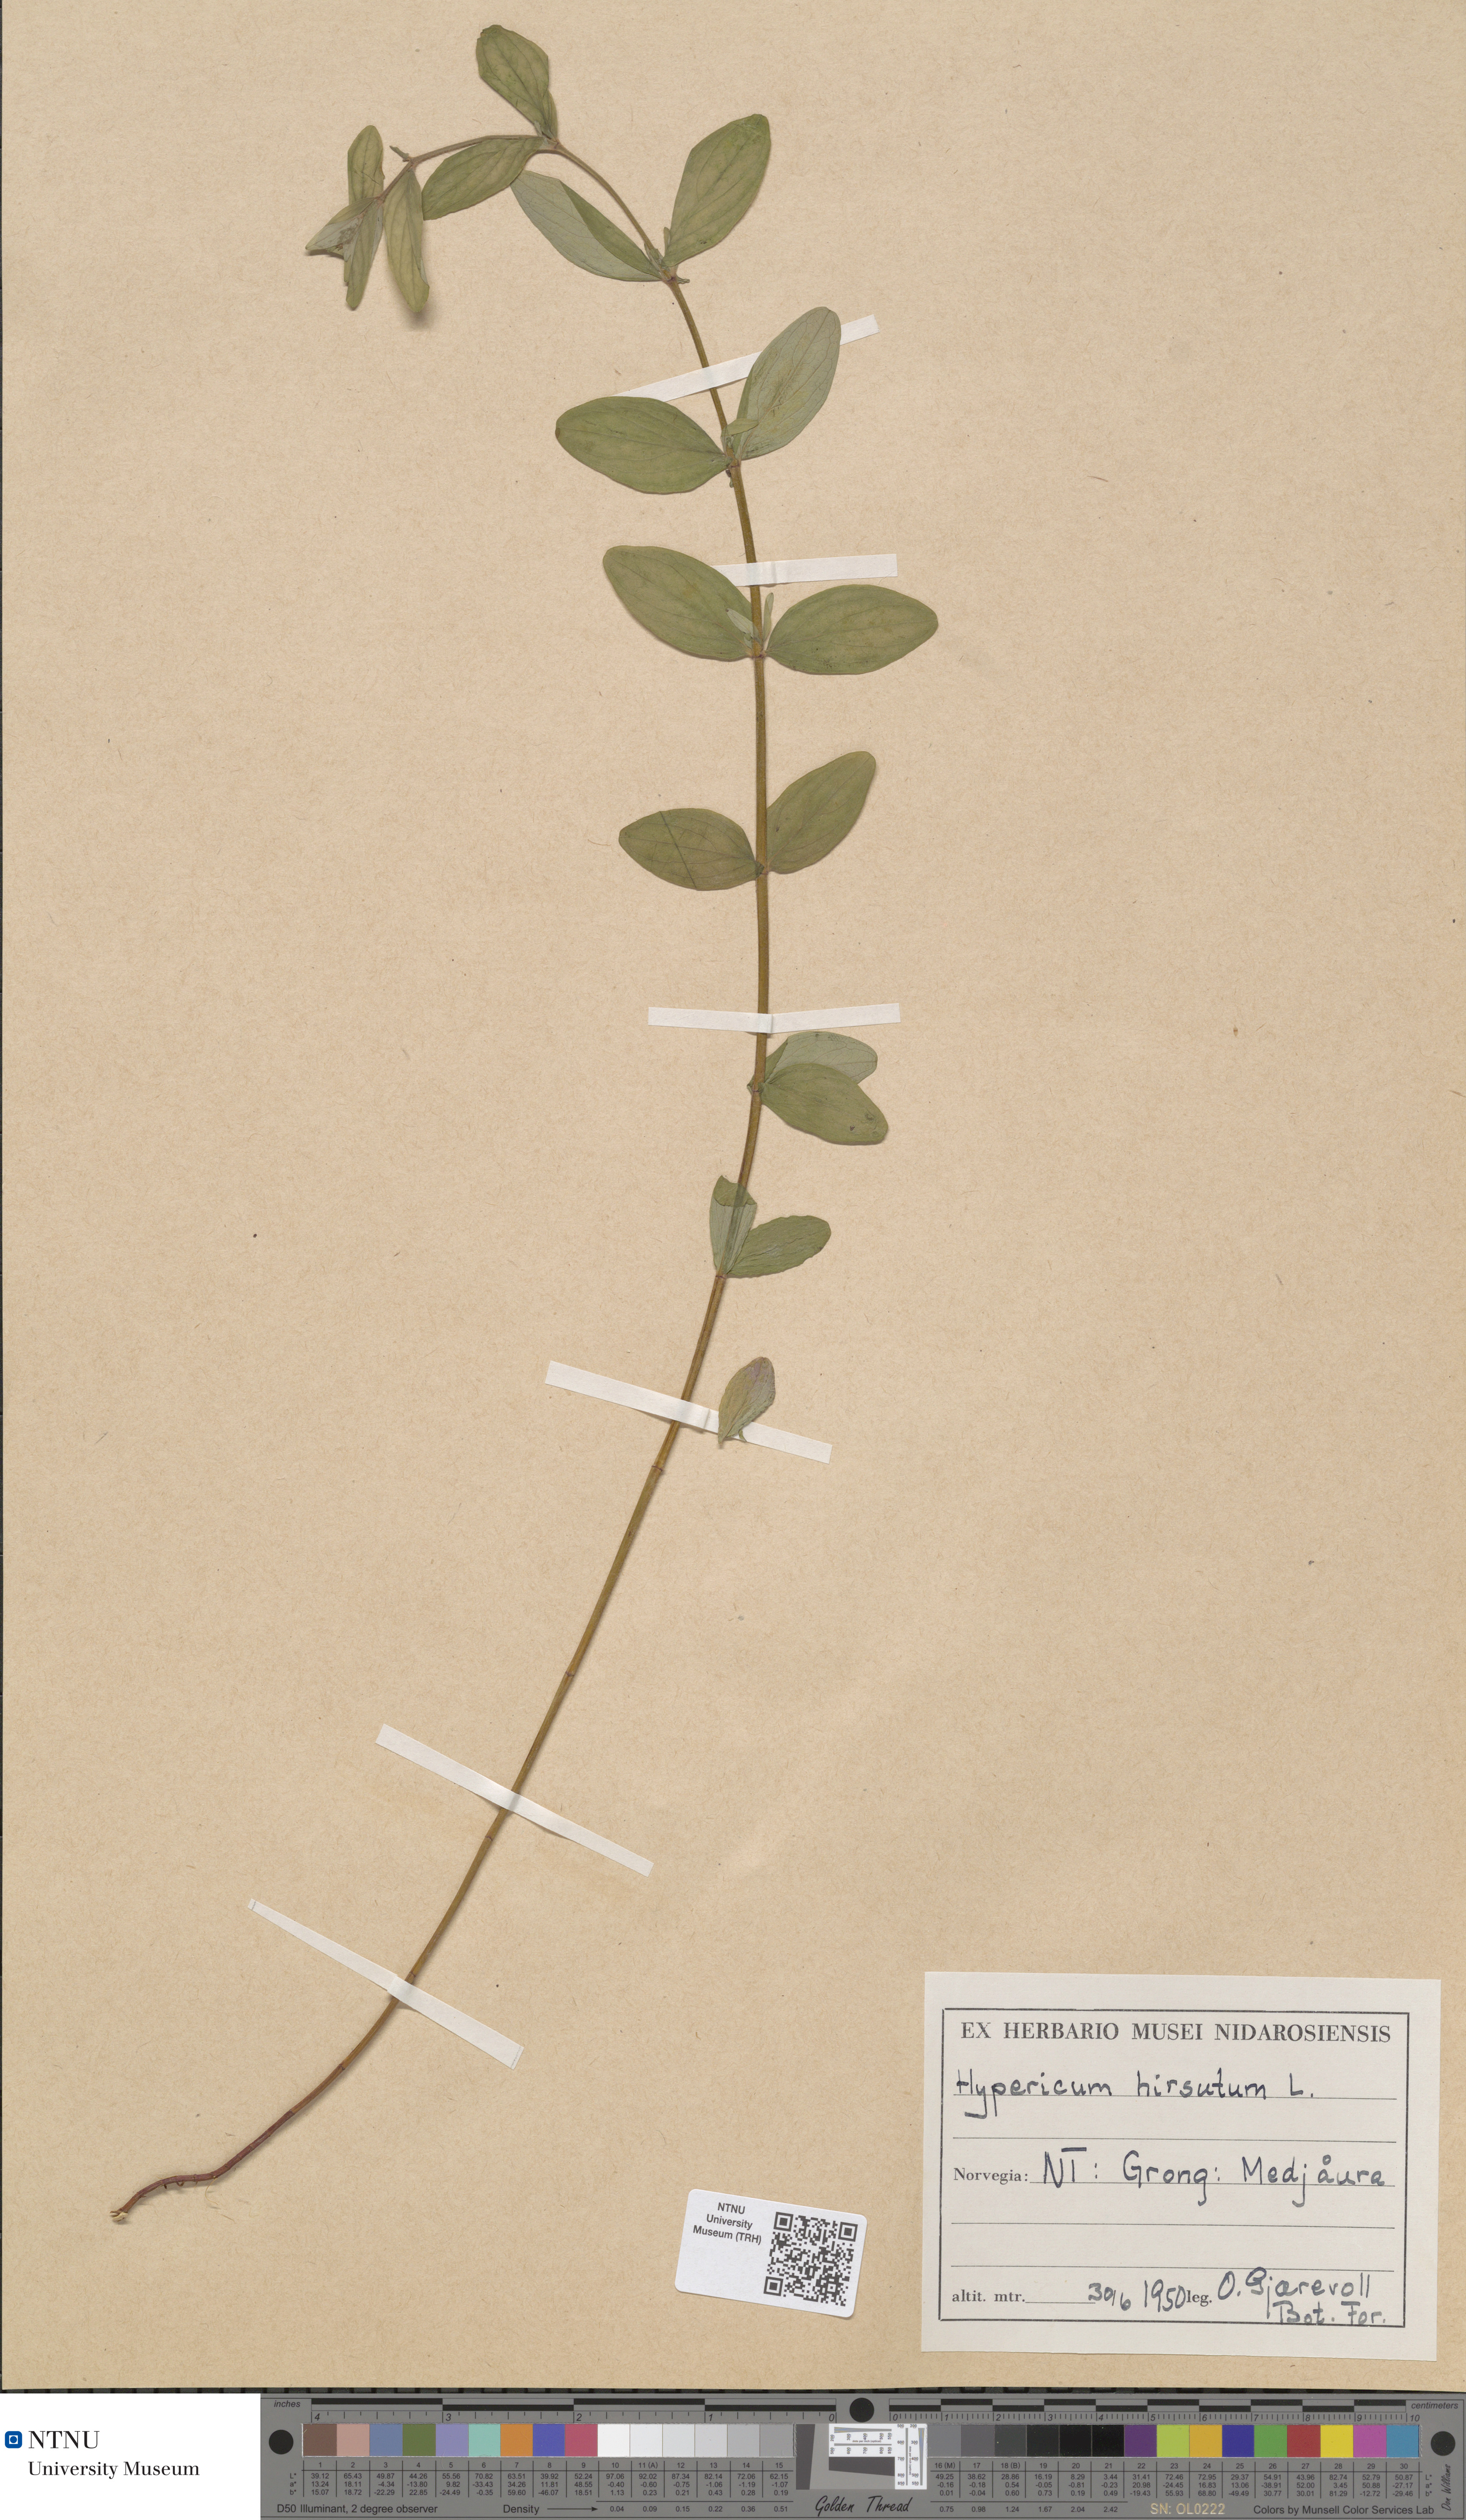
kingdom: Plantae
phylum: Tracheophyta
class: Magnoliopsida
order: Malpighiales
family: Hypericaceae
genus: Hypericum
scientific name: Hypericum hirsutum
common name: Hairy st. john's-wort
